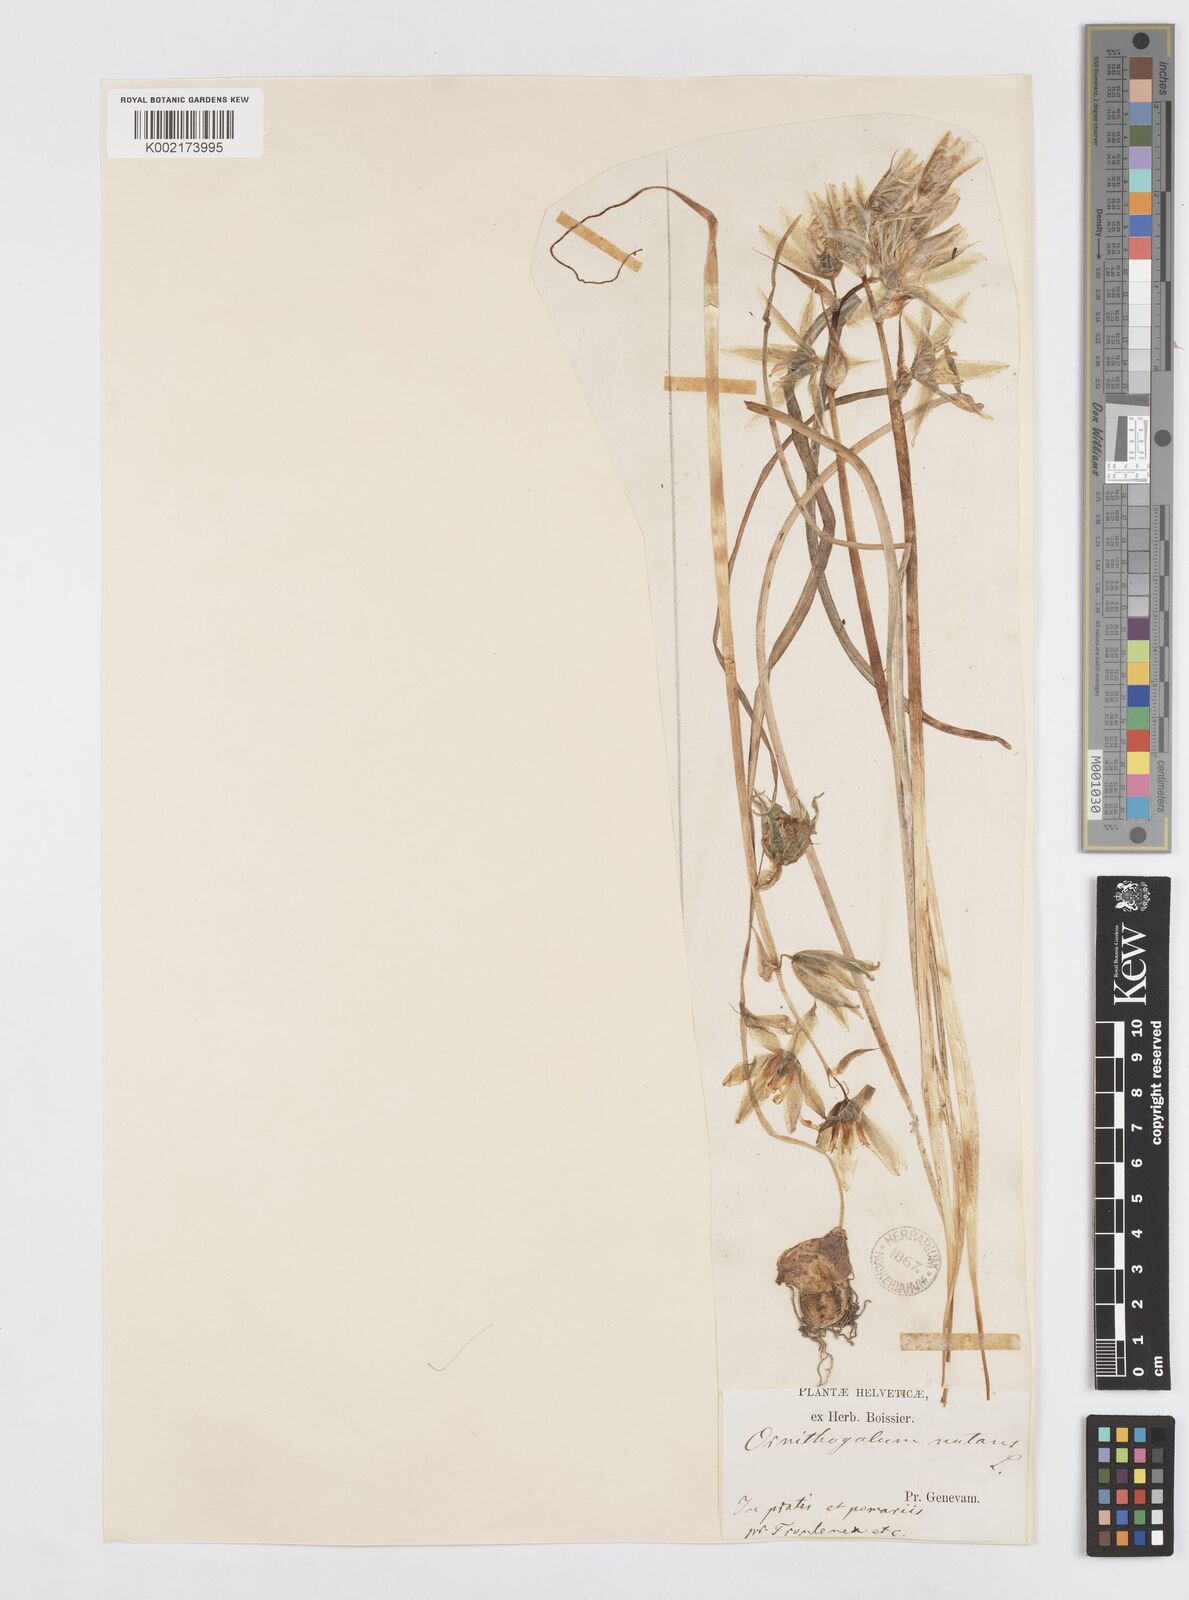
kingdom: Plantae
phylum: Tracheophyta
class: Liliopsida
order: Asparagales
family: Asparagaceae
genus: Ornithogalum
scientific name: Ornithogalum nutans
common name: Drooping star-of-bethlehem
